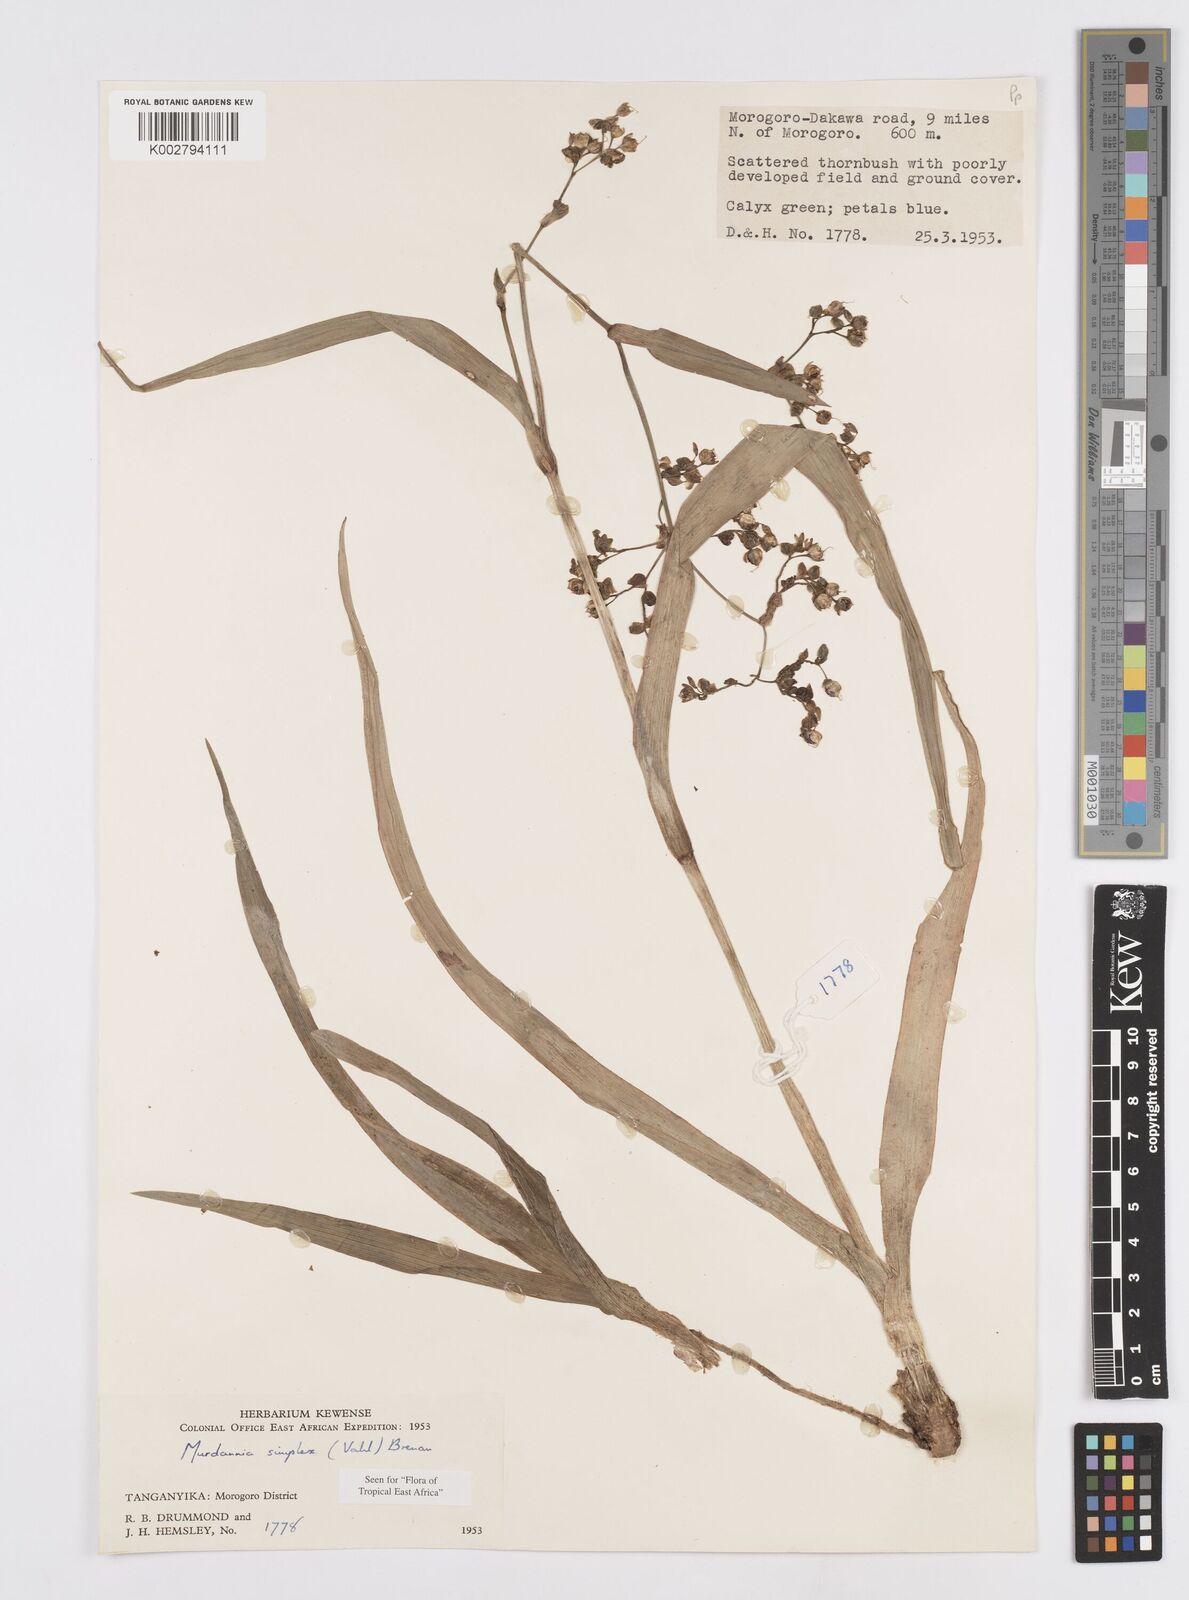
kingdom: Plantae
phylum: Tracheophyta
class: Liliopsida
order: Commelinales
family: Commelinaceae
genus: Murdannia
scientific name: Murdannia simplex
